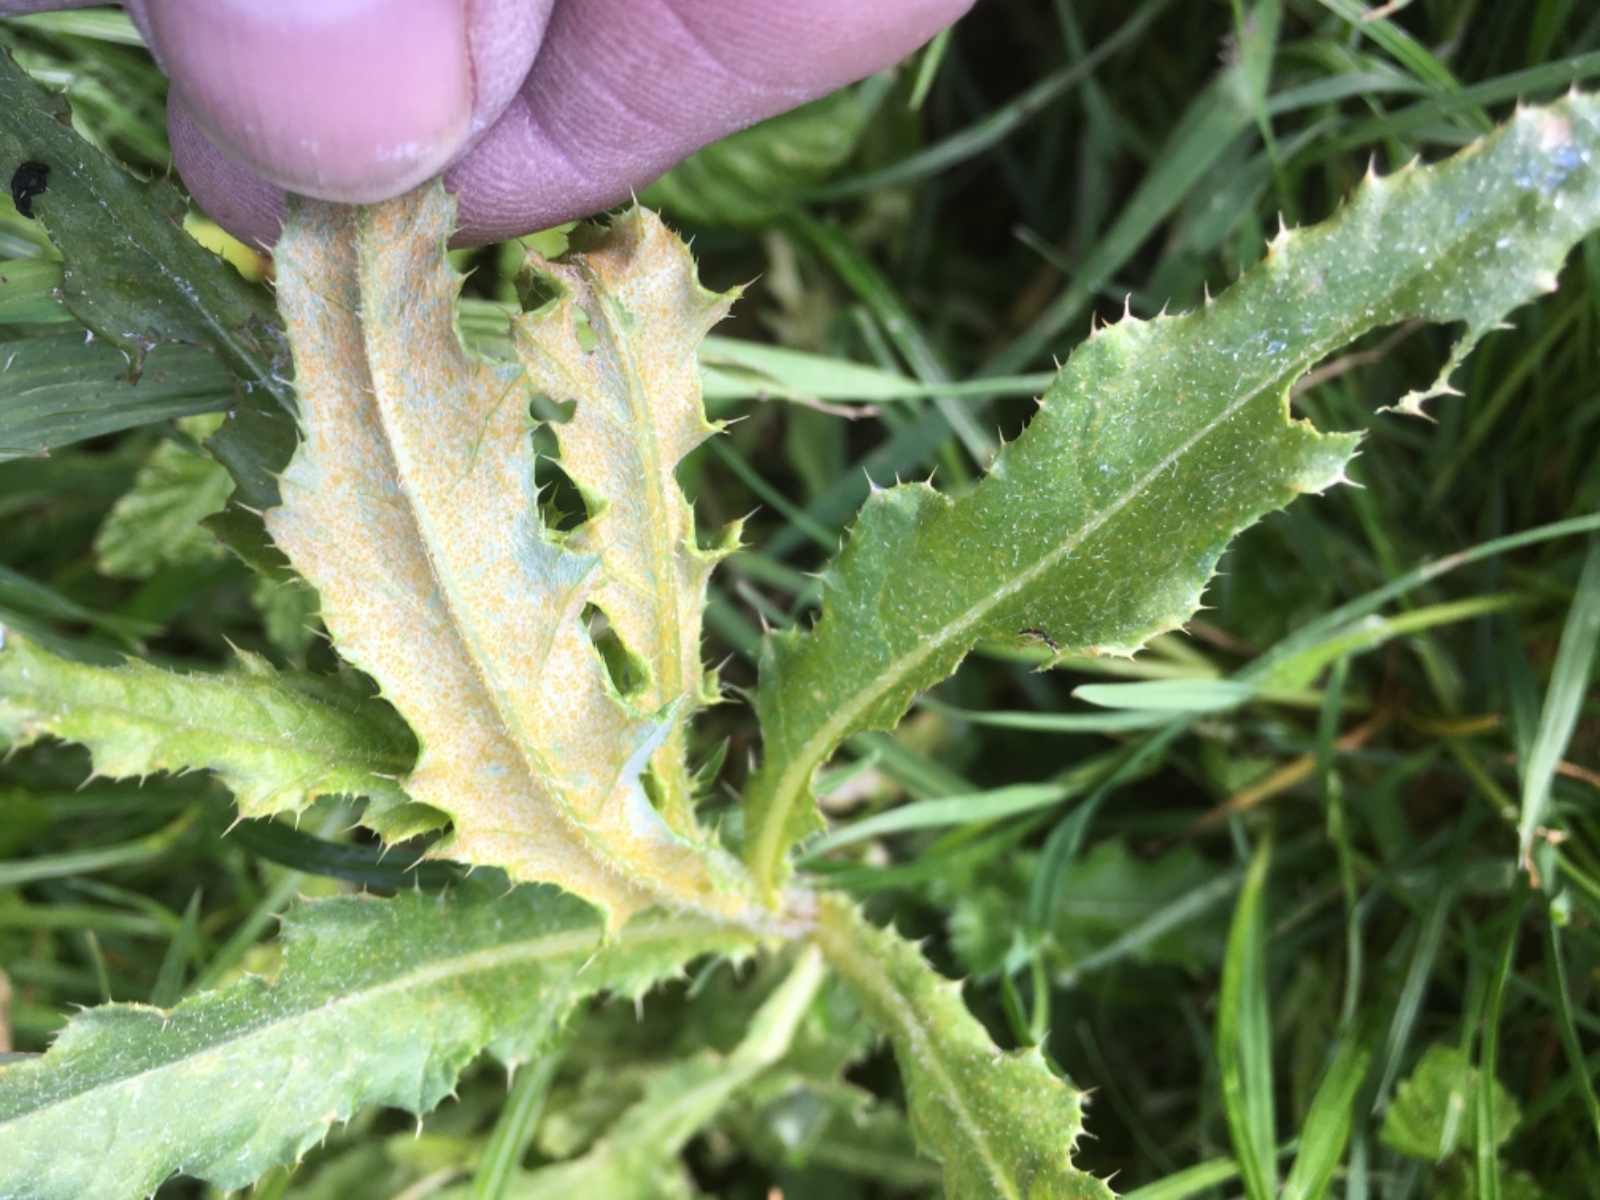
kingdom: Fungi
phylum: Basidiomycota
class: Pucciniomycetes
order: Pucciniales
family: Pucciniaceae
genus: Puccinia
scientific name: Puccinia suaveolens
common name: tidsel-tvecellerust
